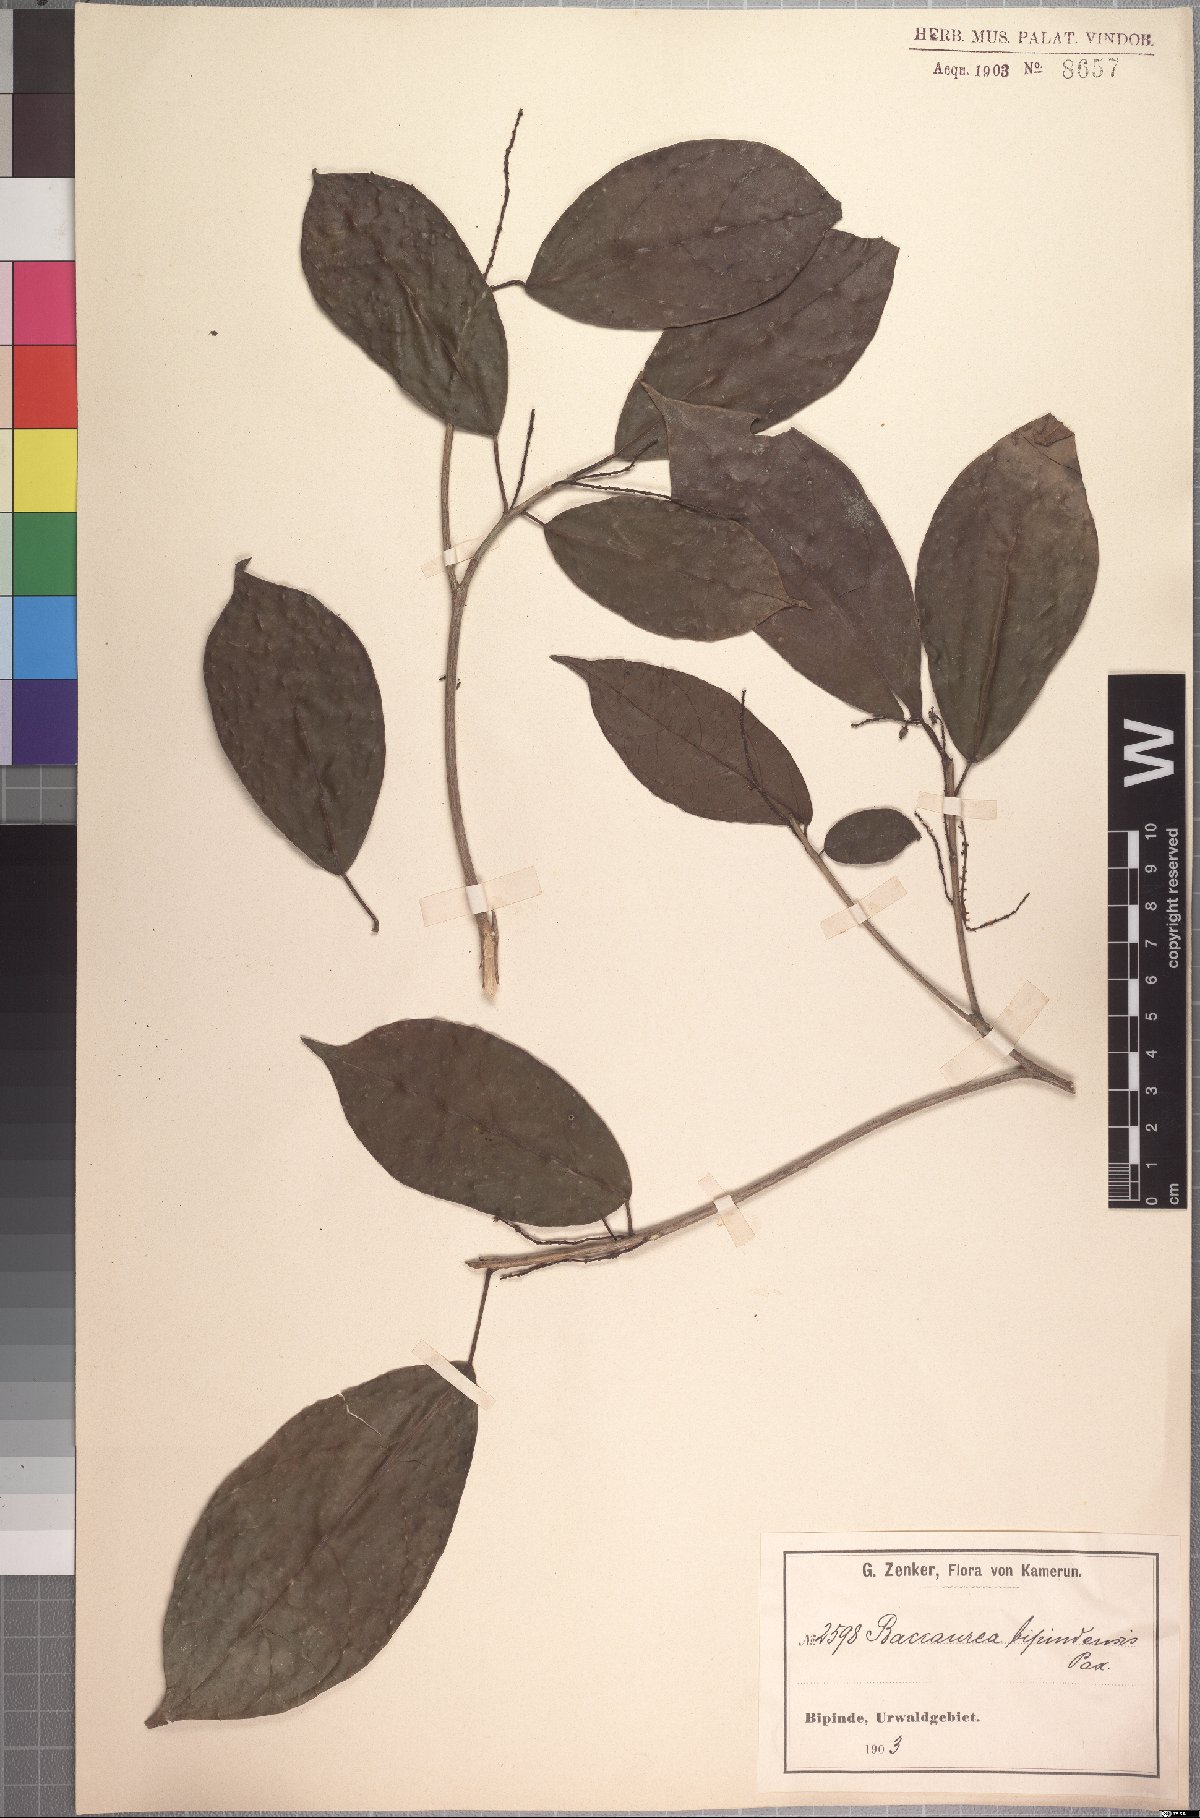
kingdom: Plantae
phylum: Tracheophyta
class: Magnoliopsida
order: Malpighiales
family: Phyllanthaceae
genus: Maesobotrya
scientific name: Maesobotrya griffoniana
